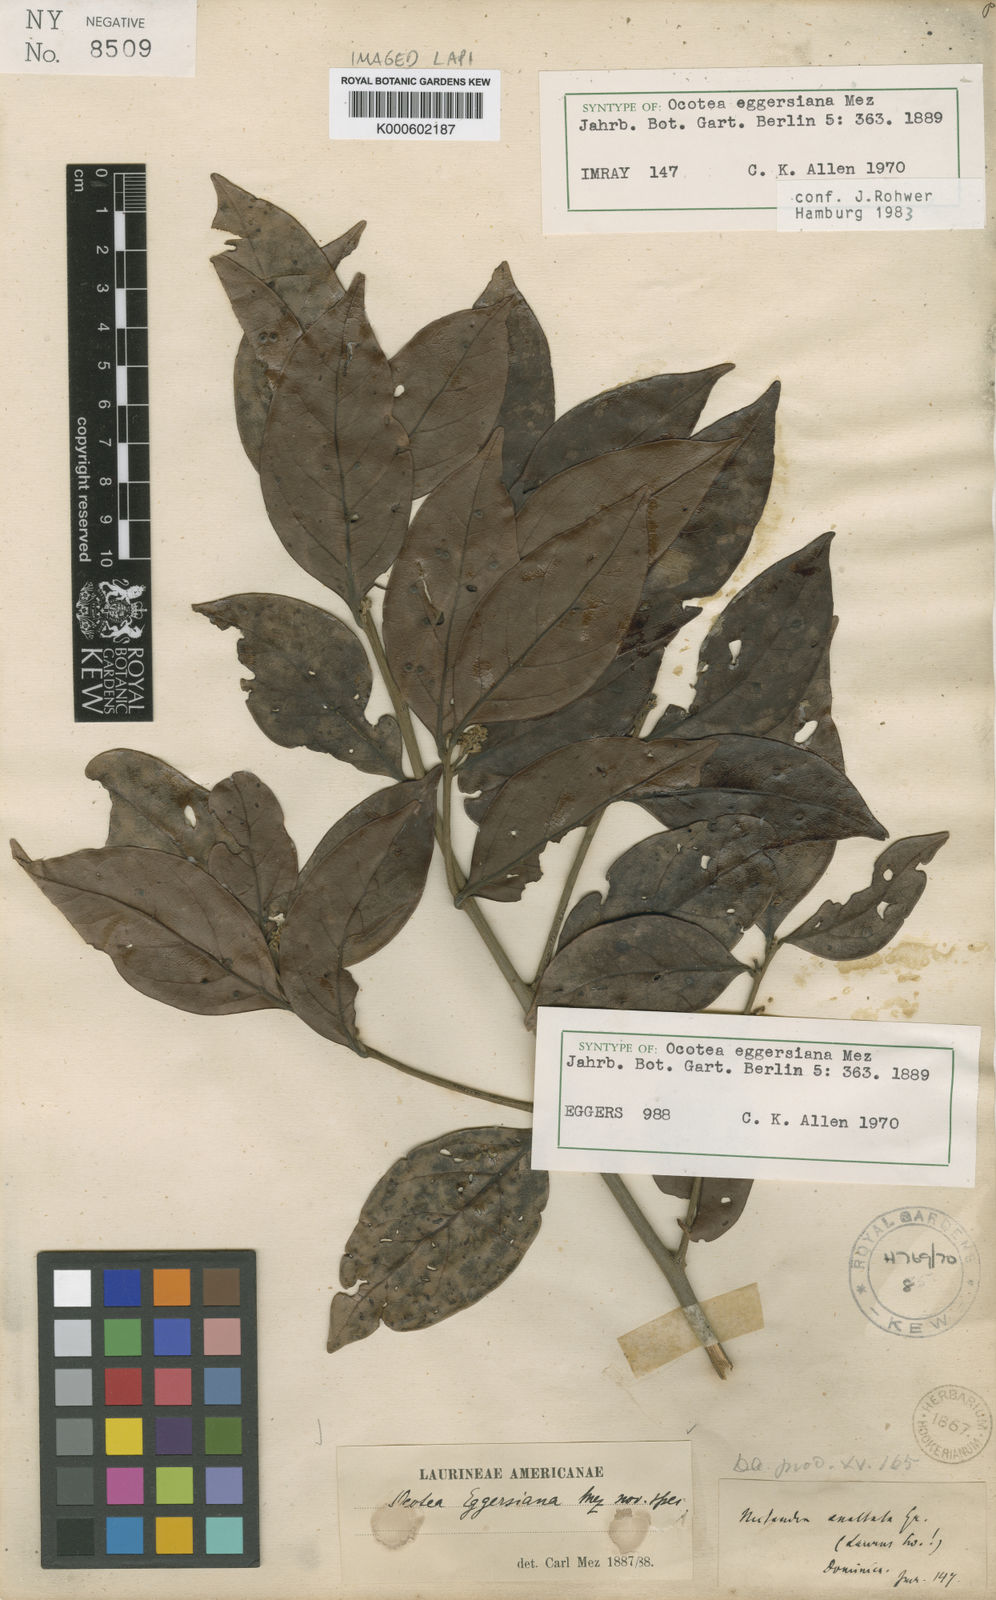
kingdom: Plantae
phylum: Tracheophyta
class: Magnoliopsida
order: Laurales
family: Lauraceae
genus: Ocotea
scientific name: Ocotea eggersiana
